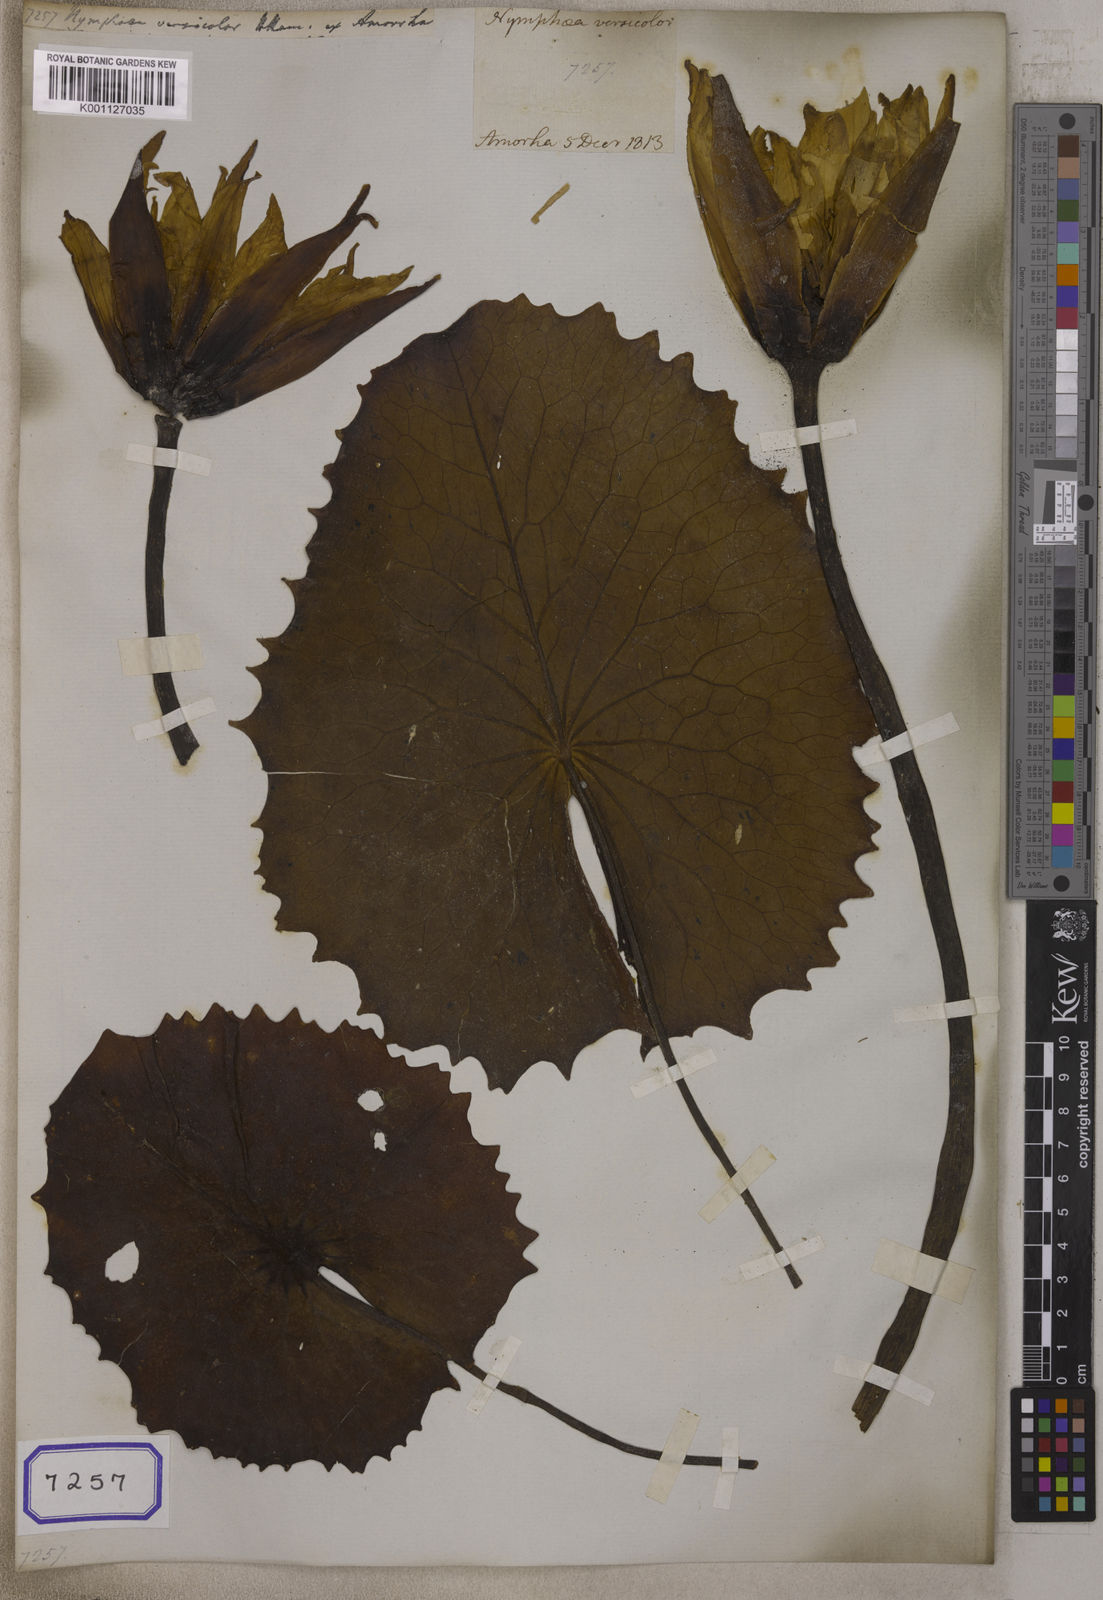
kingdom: Plantae
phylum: Tracheophyta
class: Magnoliopsida
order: Nymphaeales
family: Nymphaeaceae
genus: Nymphaea
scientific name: Nymphaea nouchali
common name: Blue lotus
